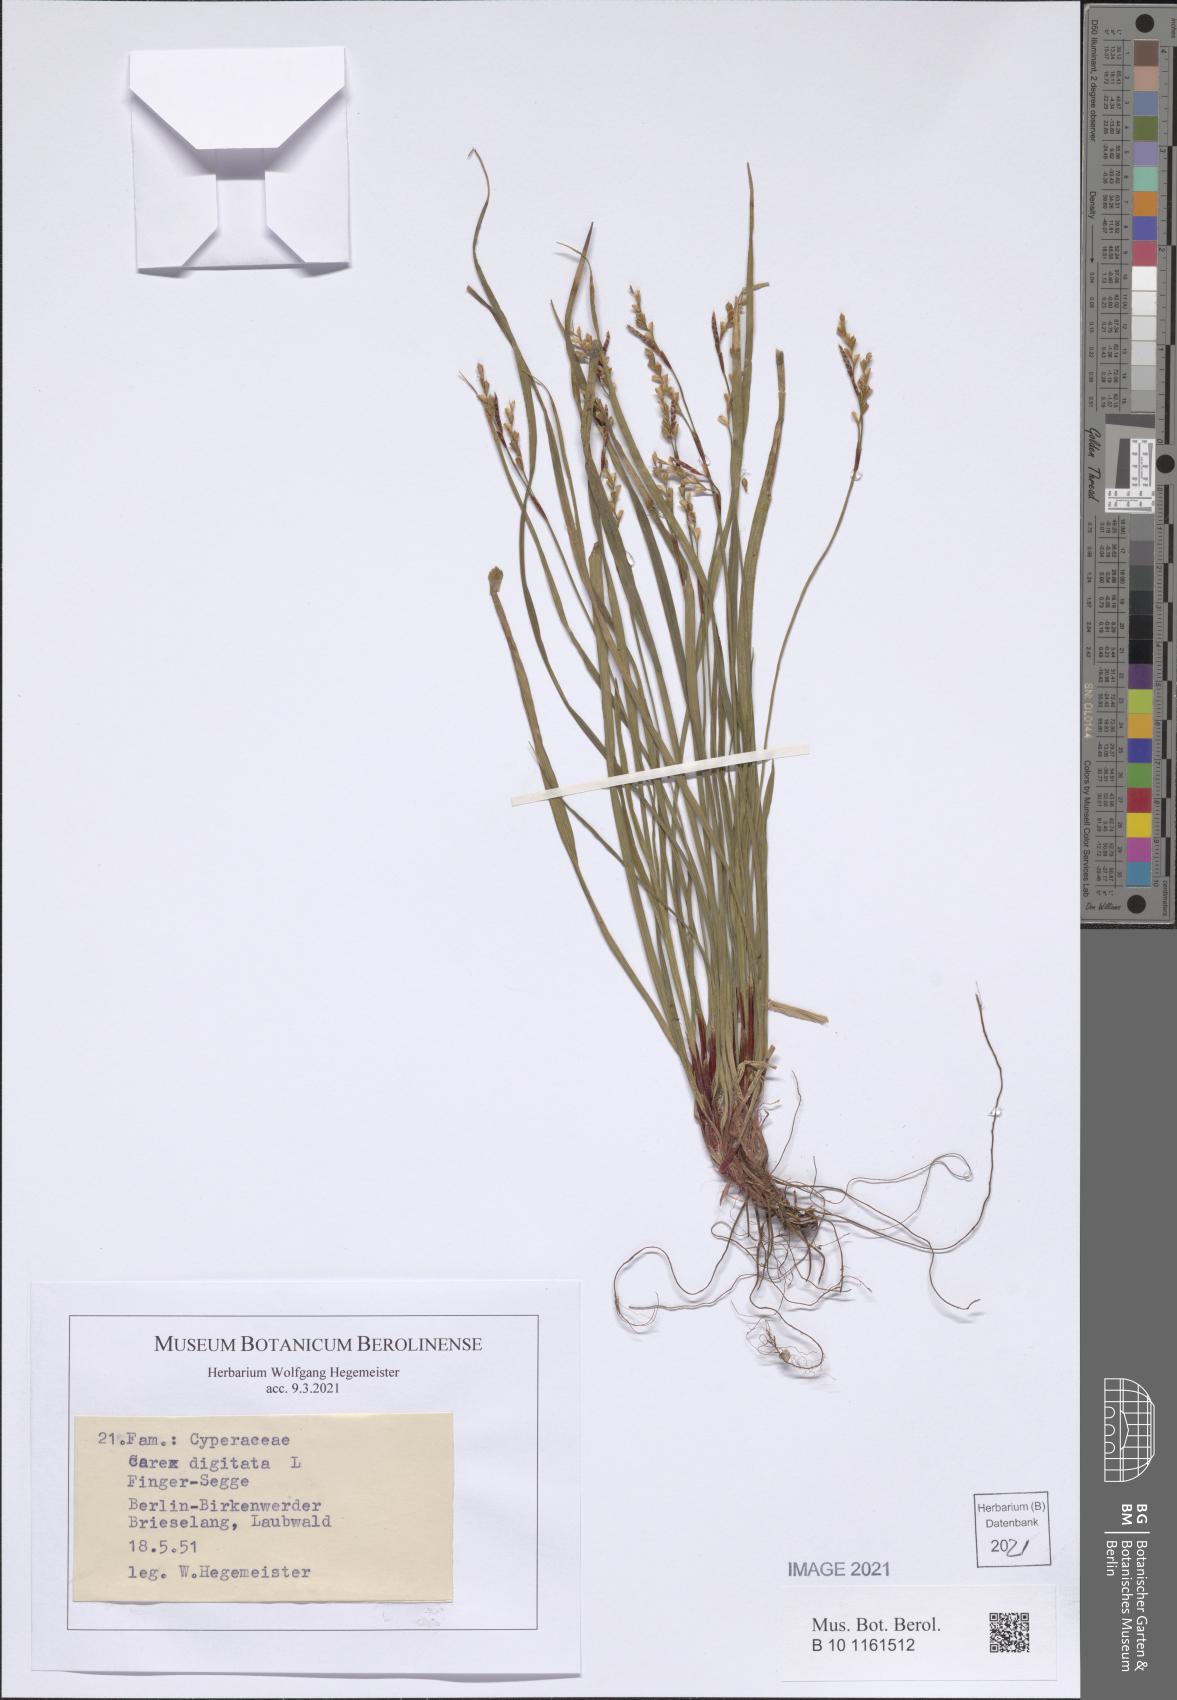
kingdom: Plantae
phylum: Tracheophyta
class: Liliopsida
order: Poales
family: Cyperaceae
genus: Carex
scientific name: Carex digitata
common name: Fingered sedge
